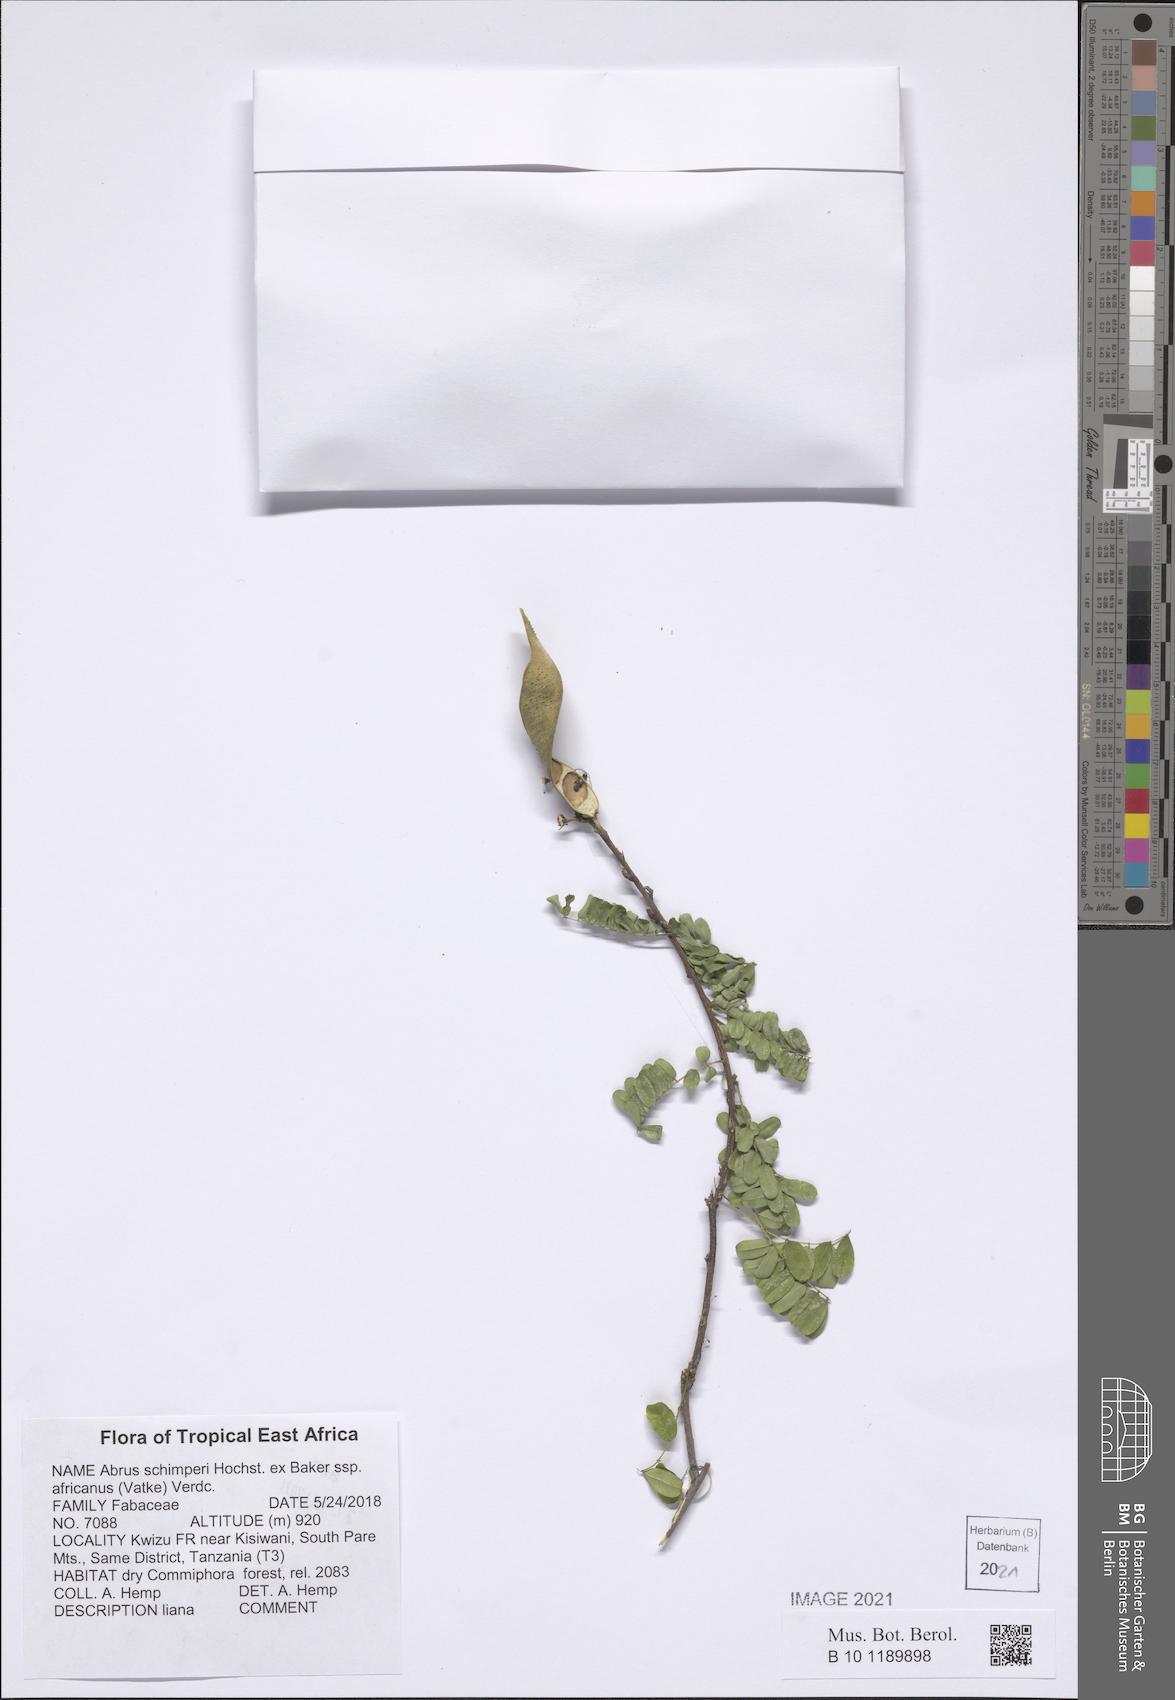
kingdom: Plantae
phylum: Tracheophyta
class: Magnoliopsida
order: Fabales
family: Fabaceae
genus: Abrus
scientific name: Abrus fruticulosus
